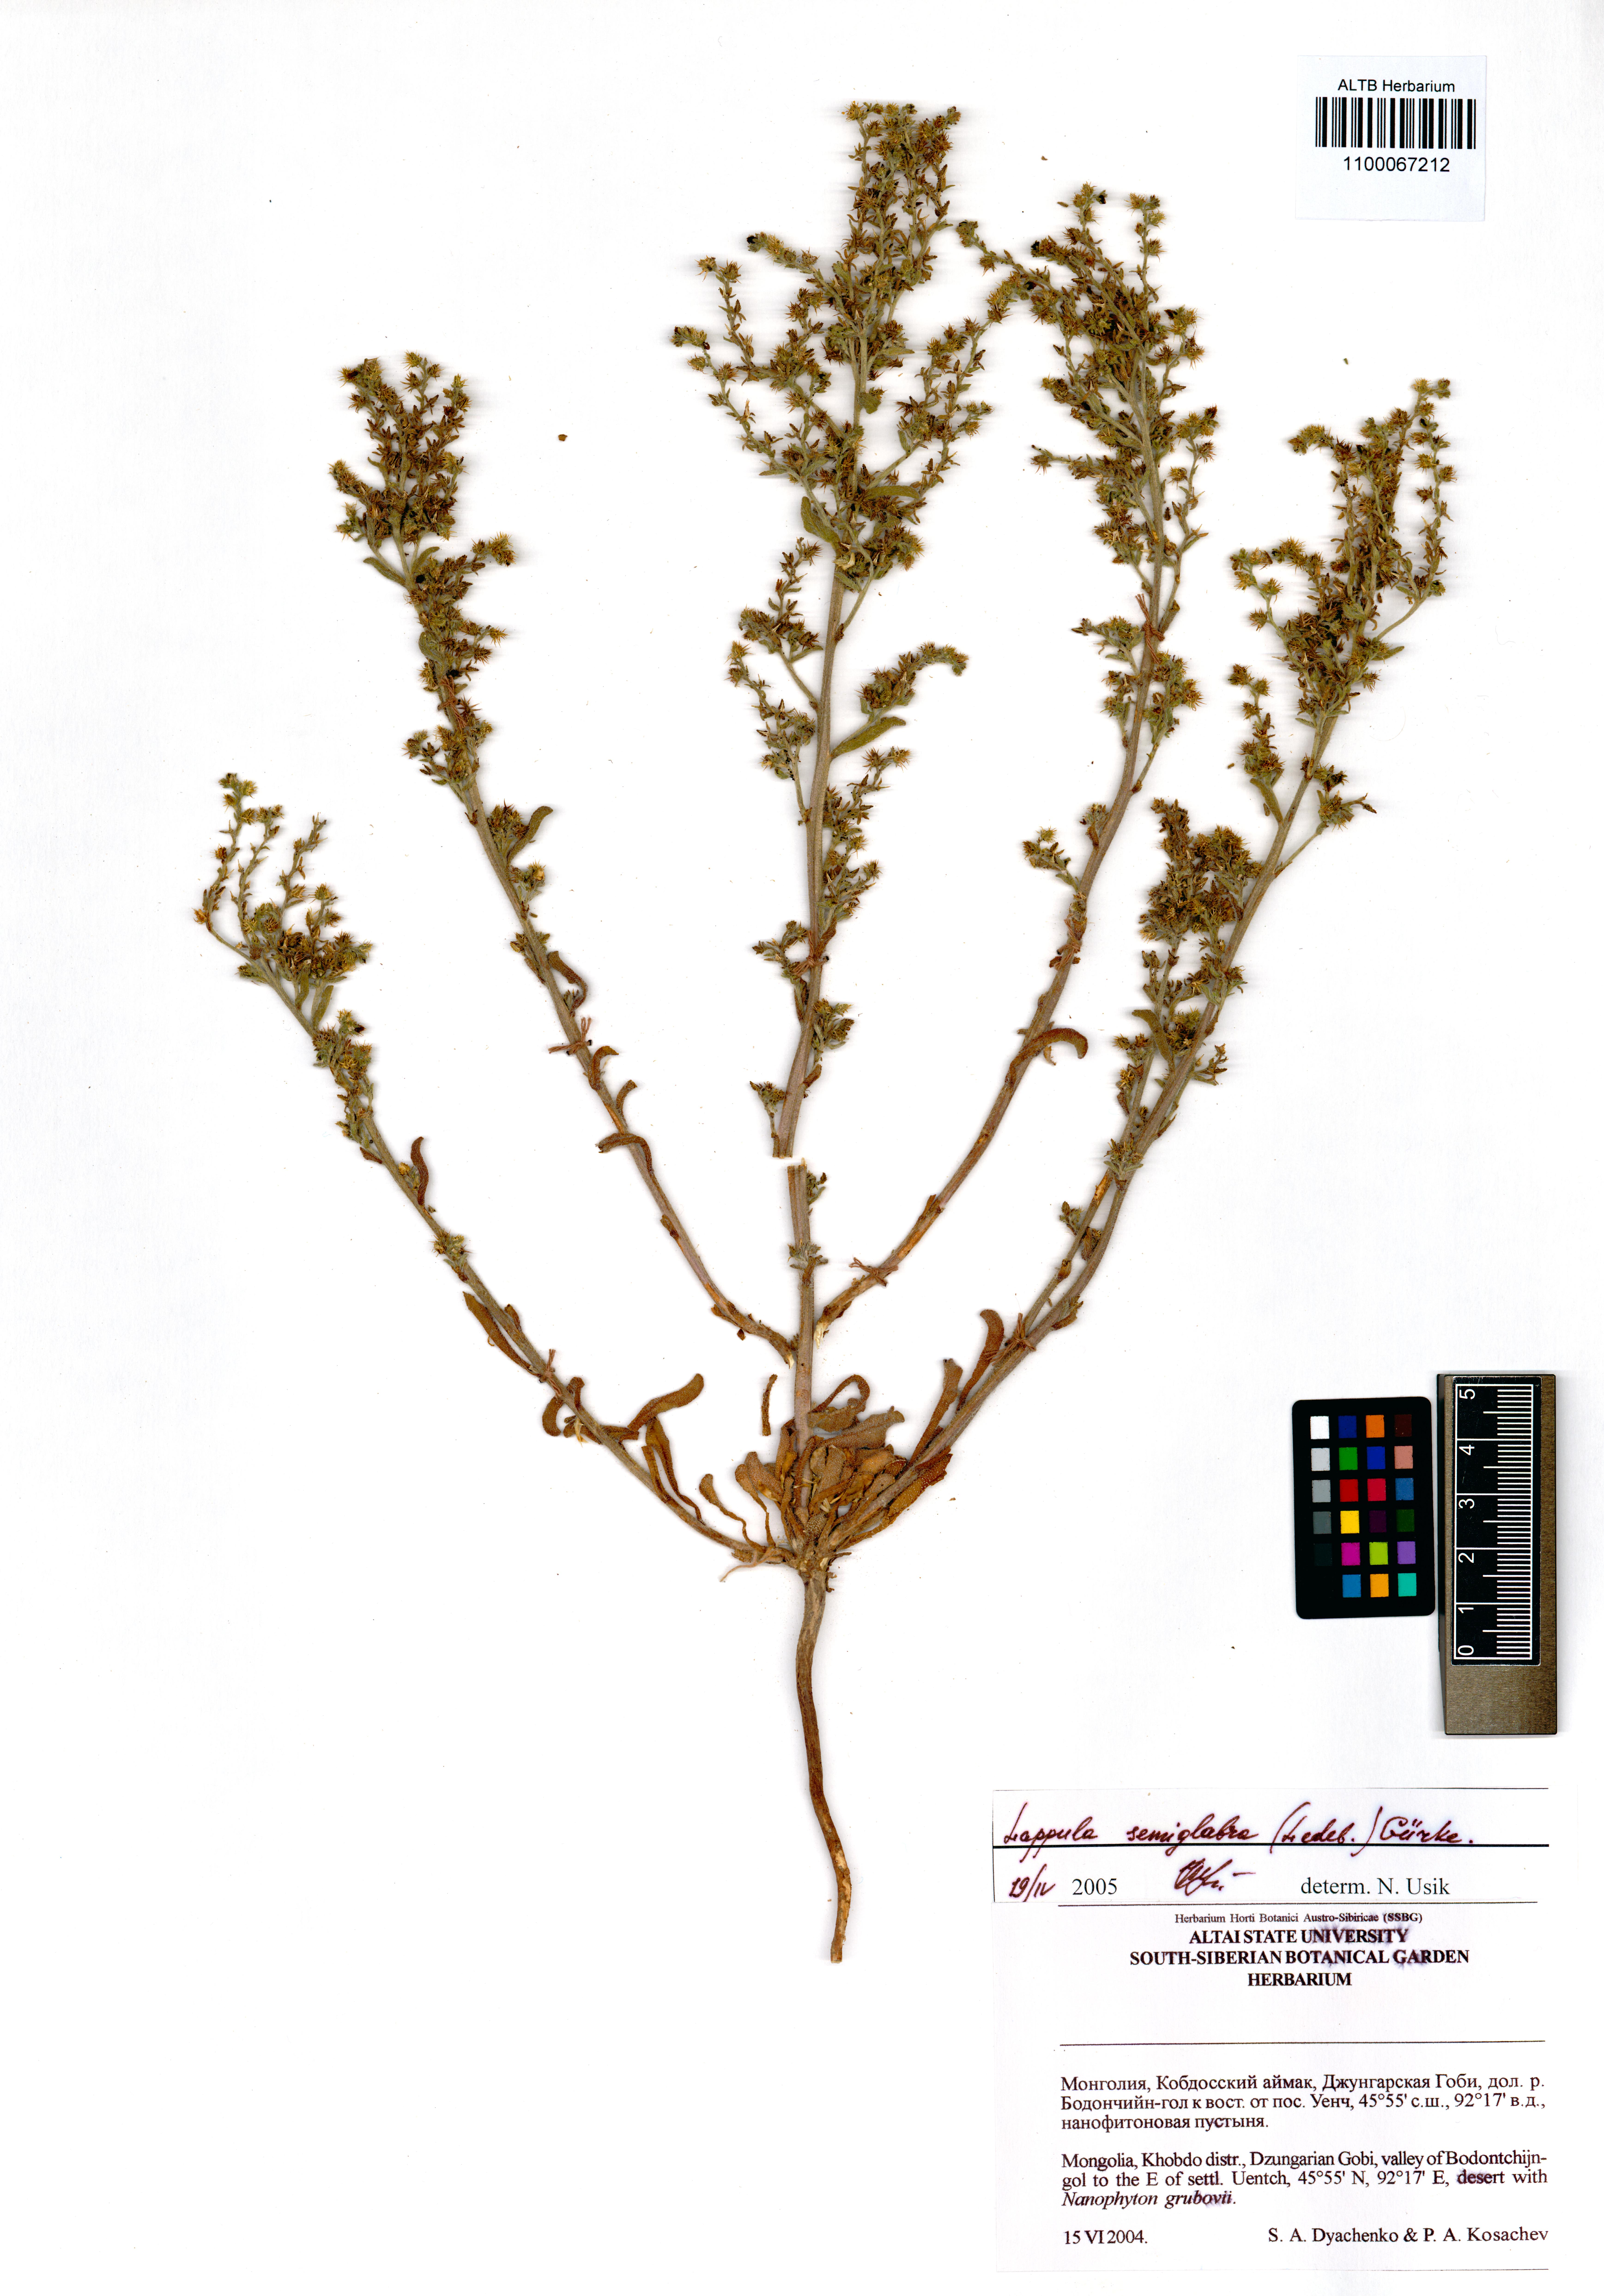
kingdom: Plantae
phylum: Tracheophyta
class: Magnoliopsida
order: Boraginales
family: Boraginaceae
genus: Lappula
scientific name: Lappula patula
